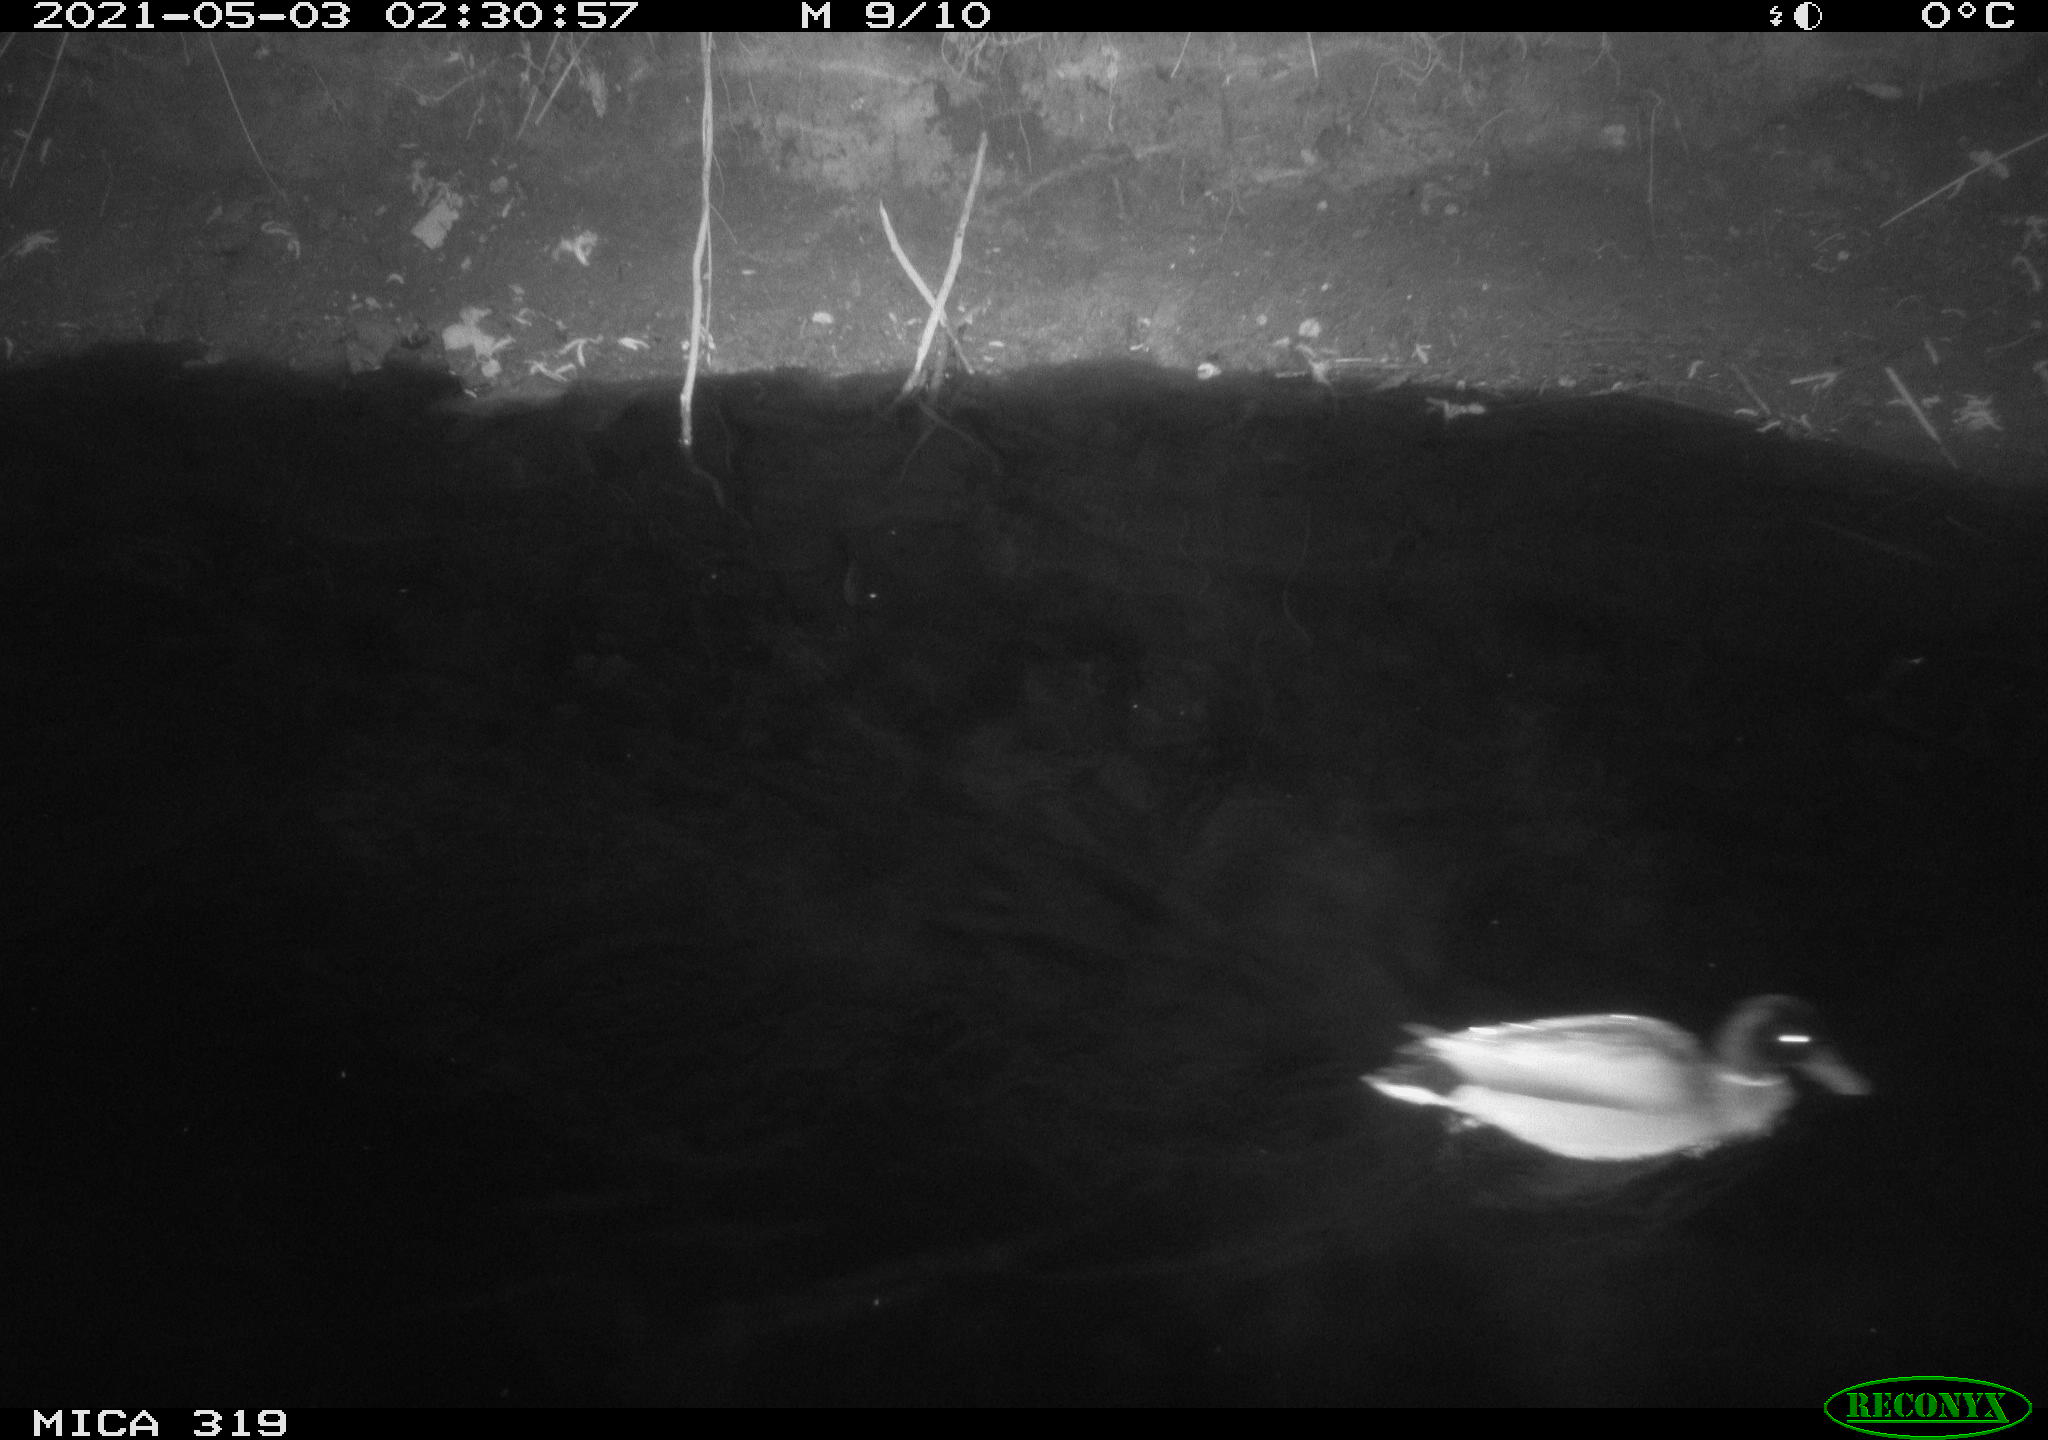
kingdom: Animalia
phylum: Chordata
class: Aves
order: Anseriformes
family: Anatidae
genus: Anas
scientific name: Anas platyrhynchos
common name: Mallard
